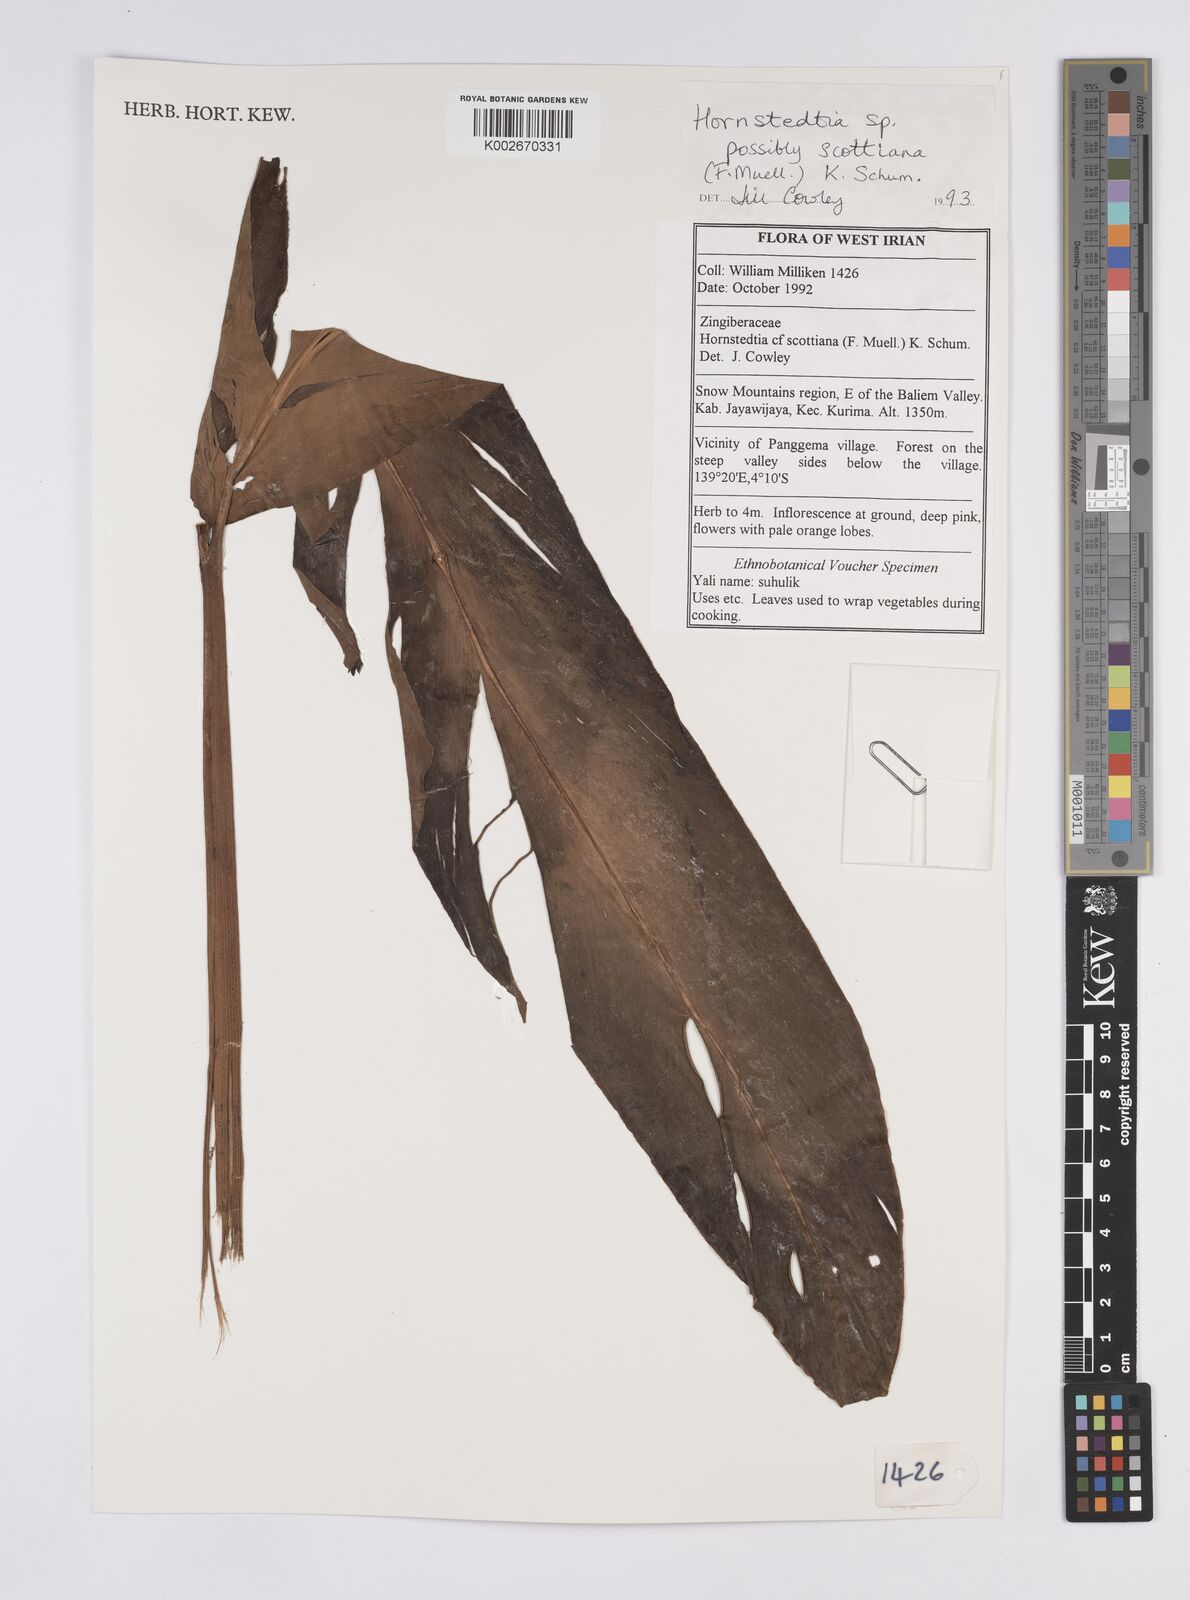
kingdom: Plantae
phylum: Tracheophyta
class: Liliopsida
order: Zingiberales
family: Zingiberaceae
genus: Hornstedtia
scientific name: Hornstedtia scottiana
